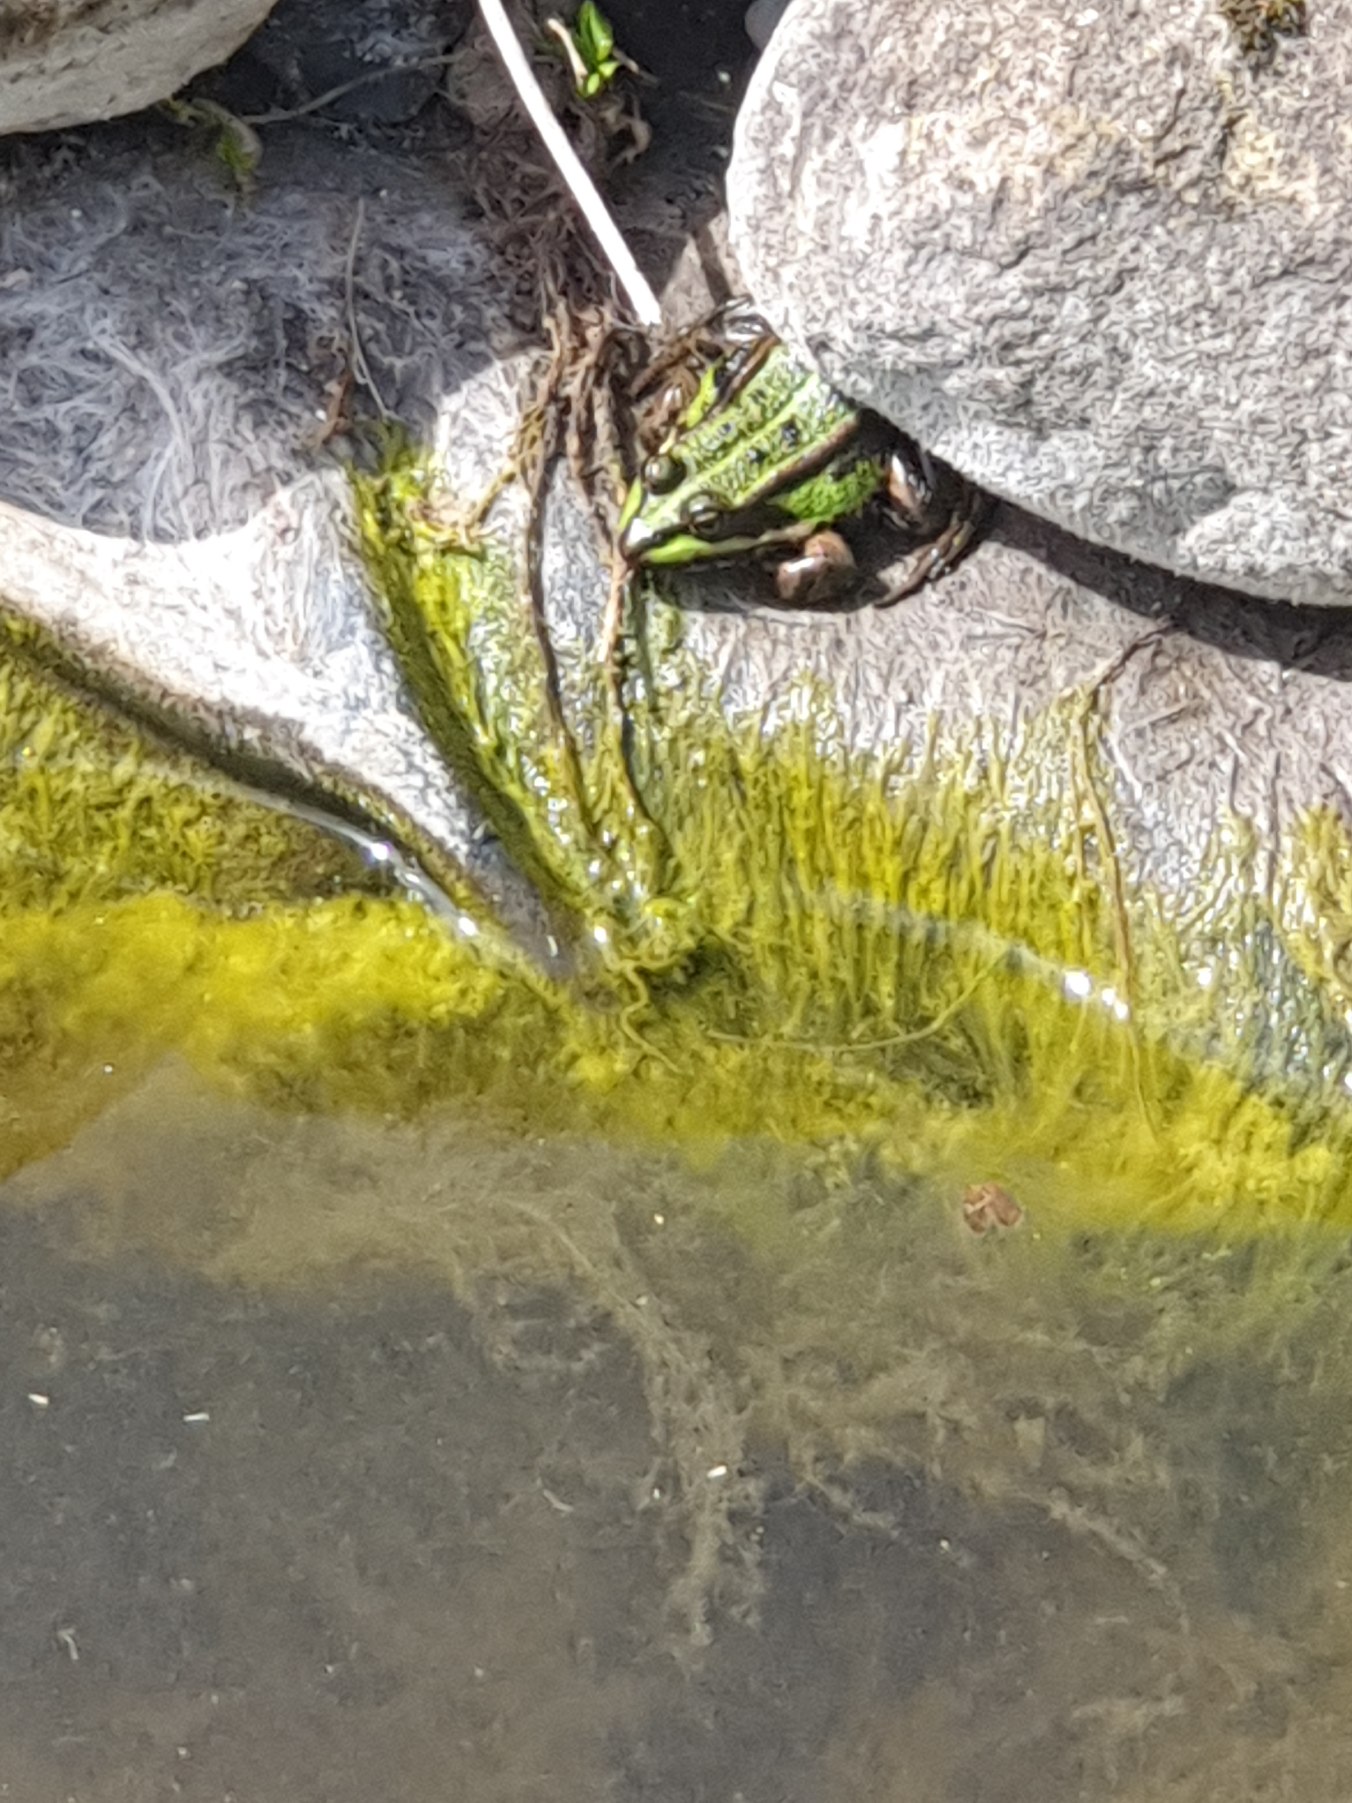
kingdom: Animalia
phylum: Chordata
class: Amphibia
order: Anura
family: Ranidae
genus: Pelophylax
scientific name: Pelophylax lessonae
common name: Grøn frø
